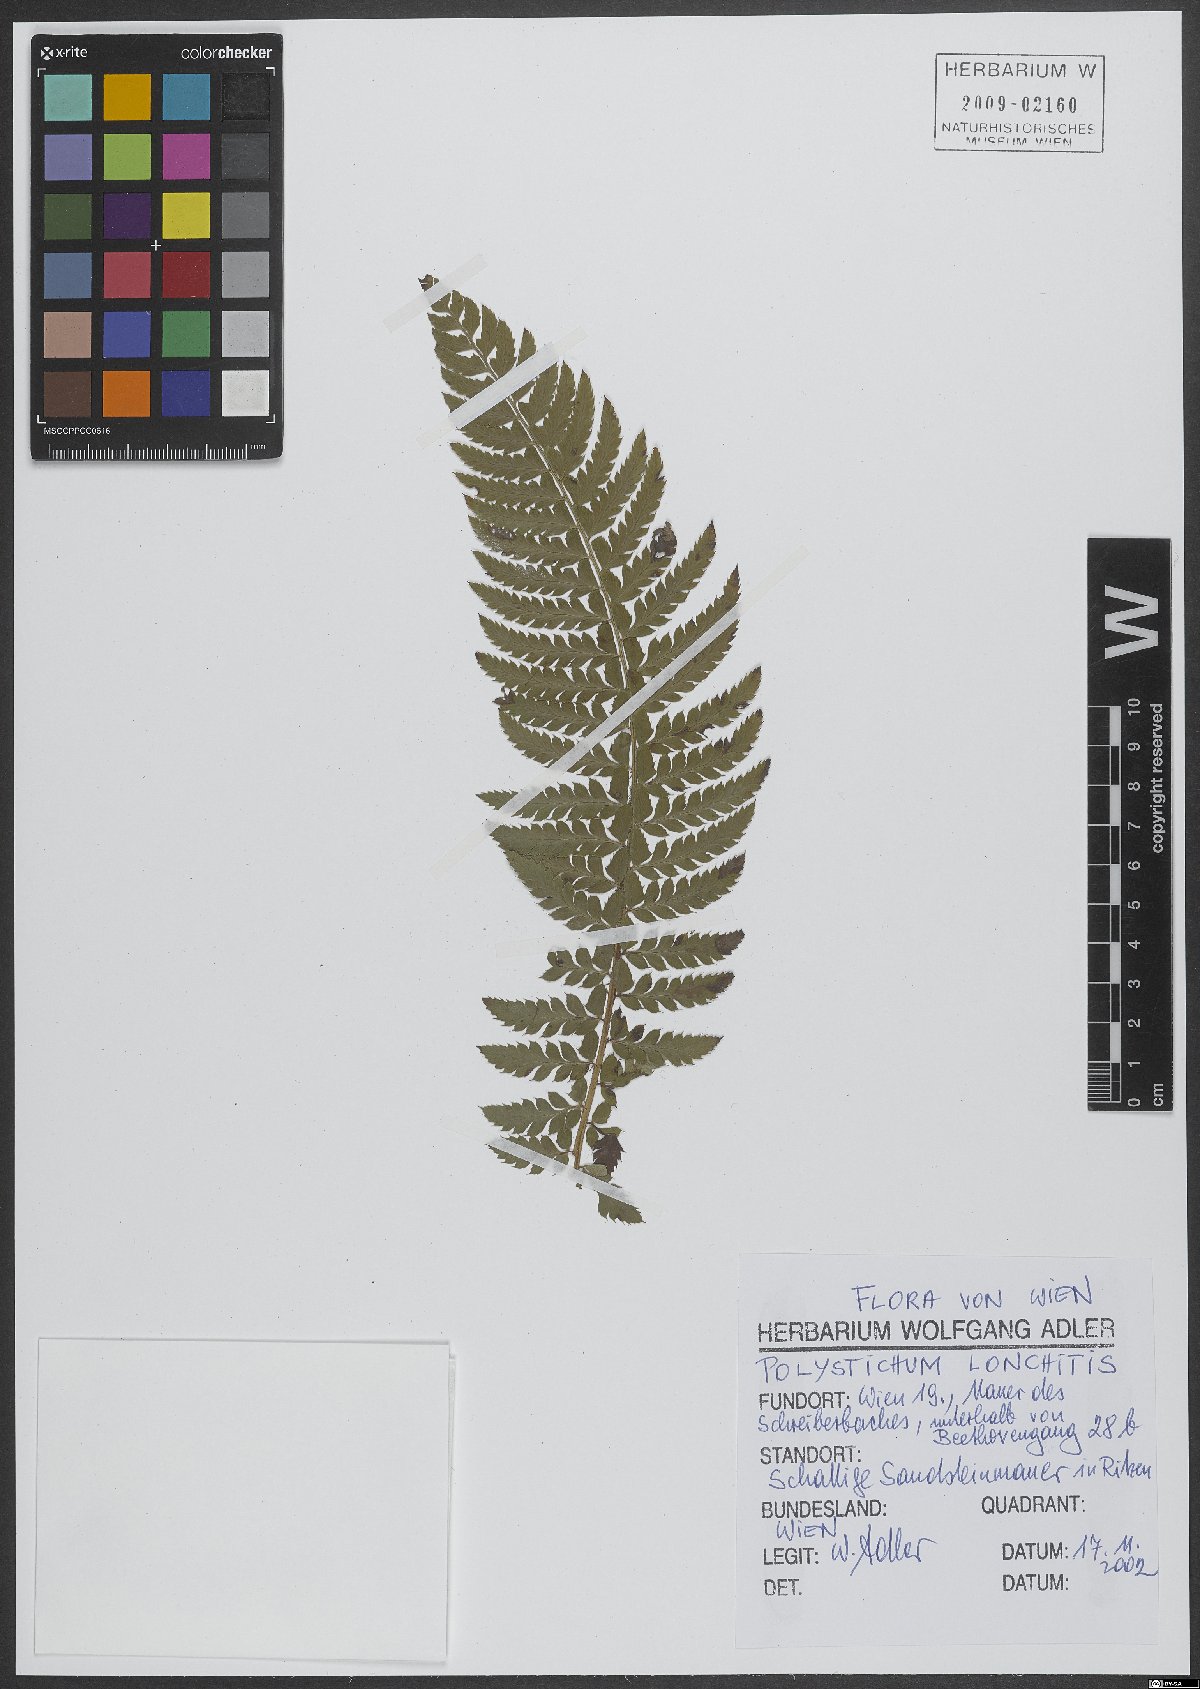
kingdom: Plantae
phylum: Tracheophyta
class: Polypodiopsida
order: Polypodiales
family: Dryopteridaceae
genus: Polystichum
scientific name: Polystichum aculeatum
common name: Hard shield-fern
